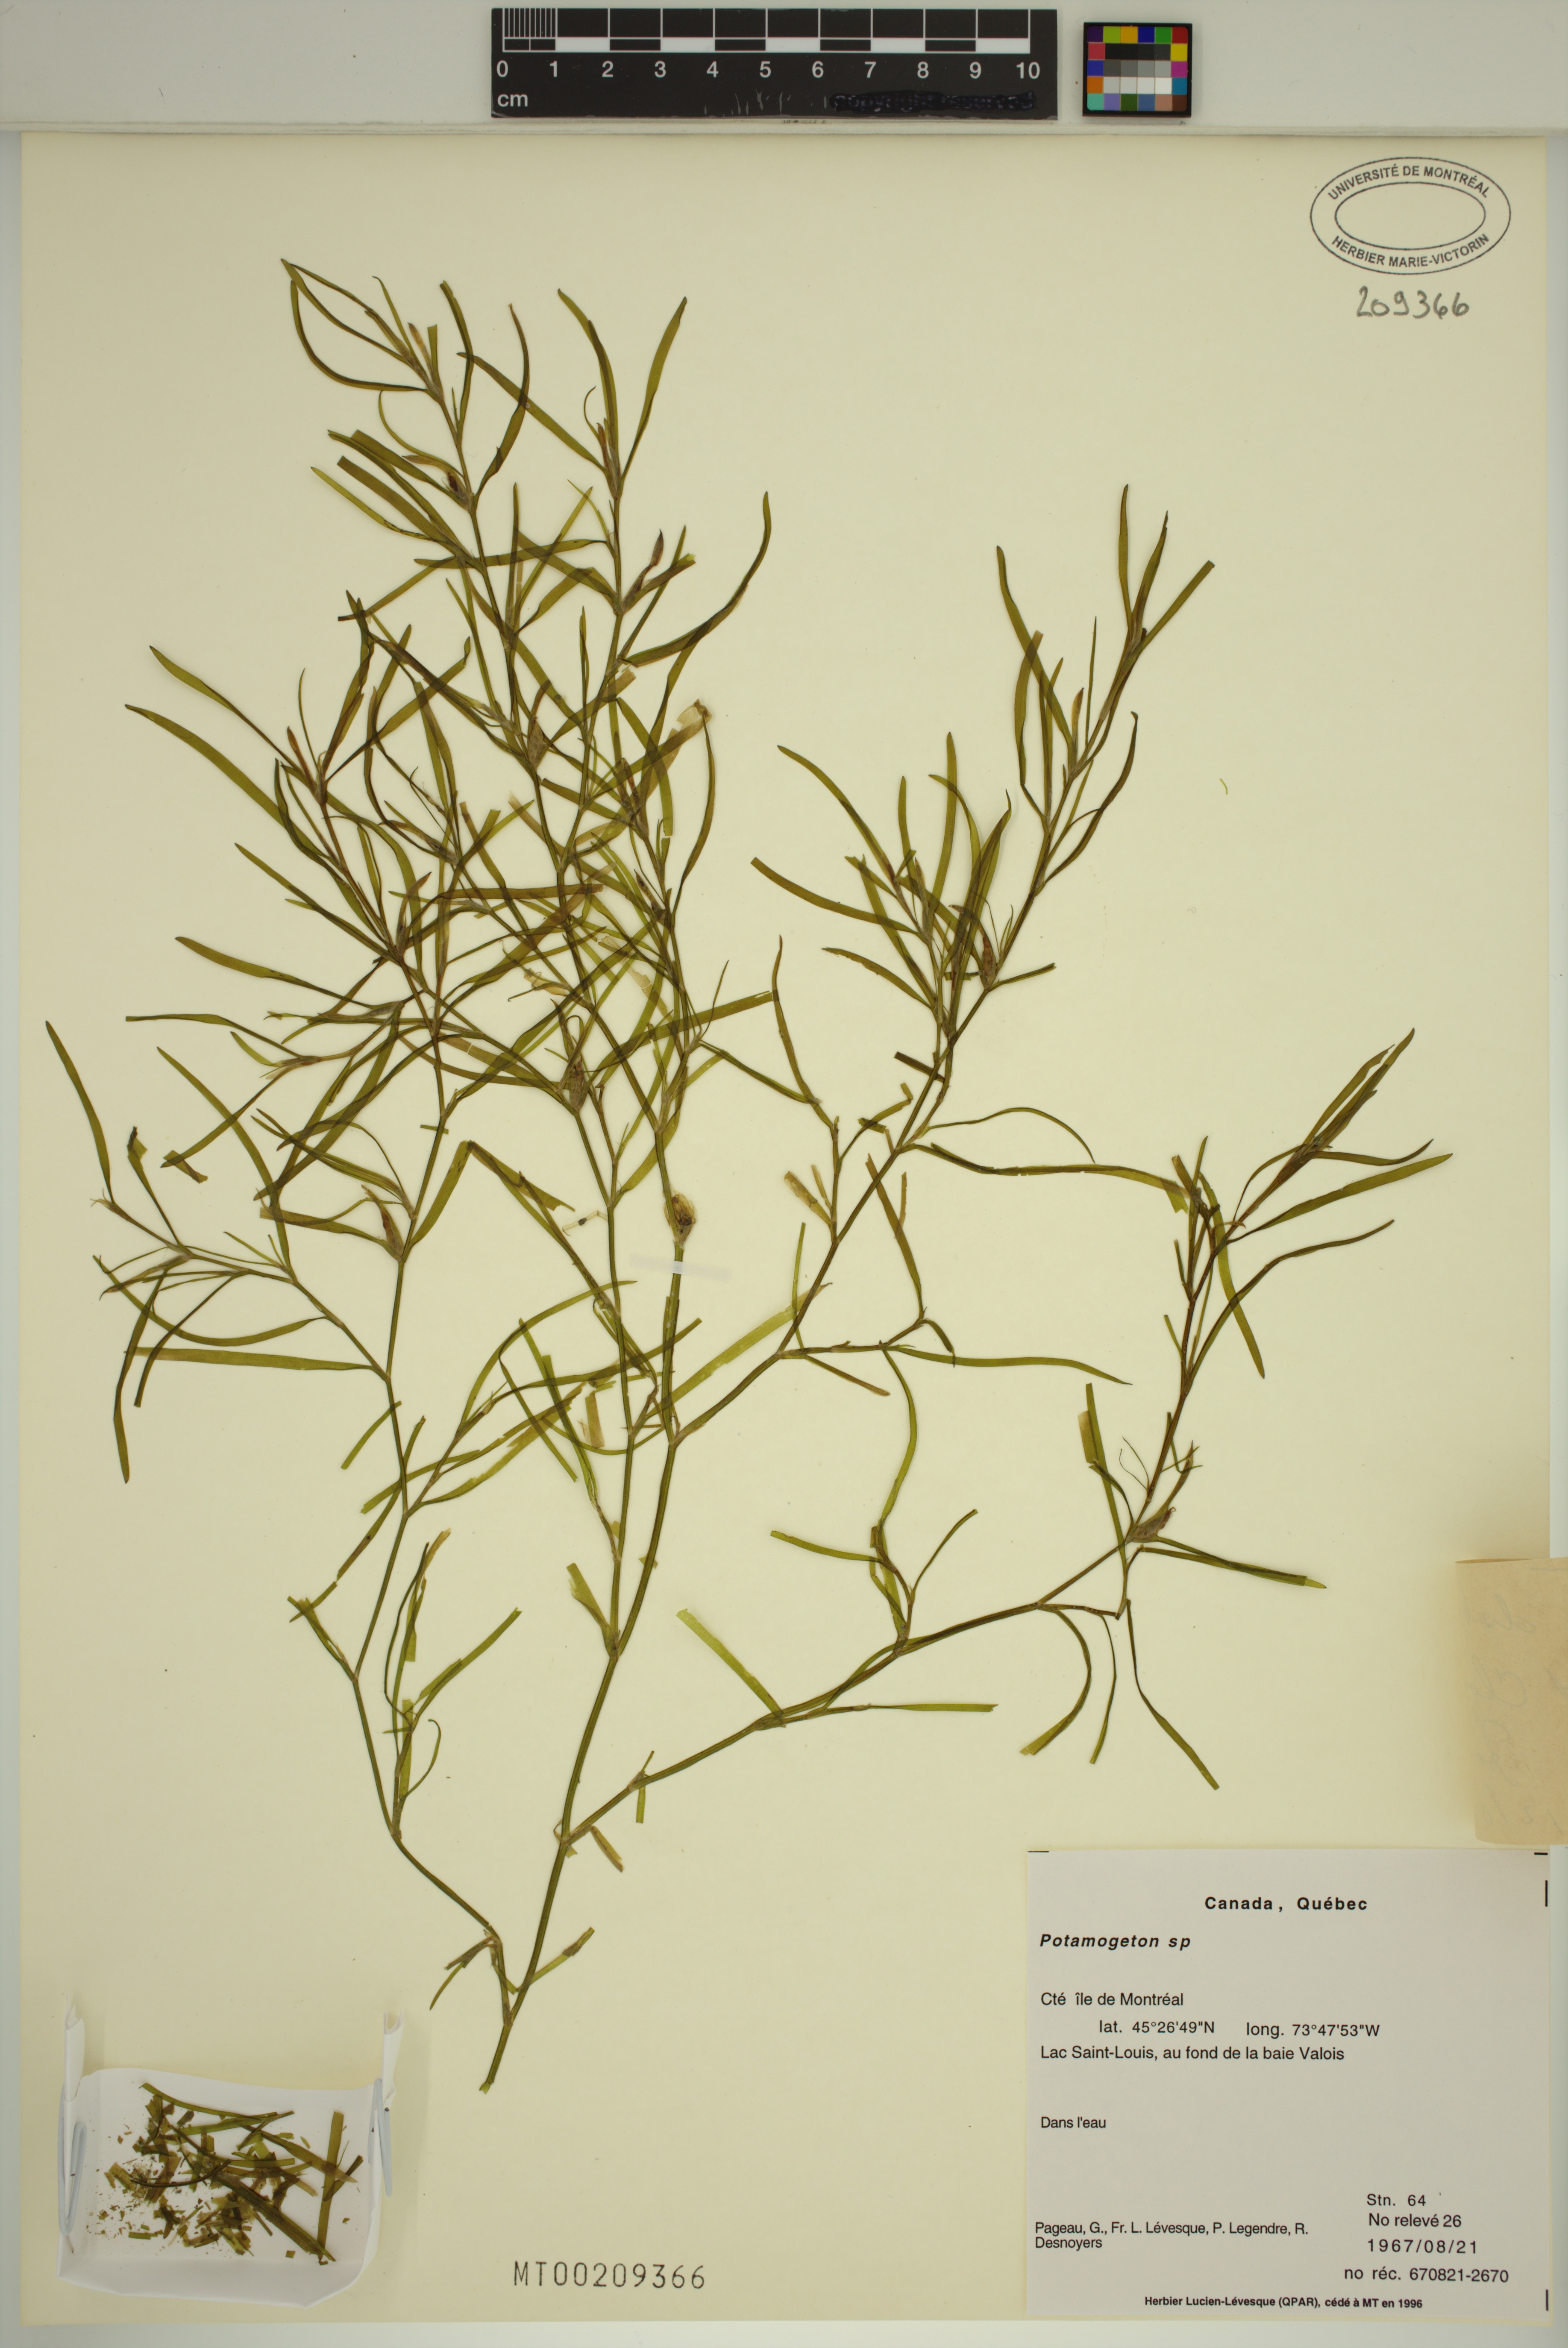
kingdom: Plantae
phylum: Tracheophyta
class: Liliopsida
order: Commelinales
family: Pontederiaceae
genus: Heteranthera
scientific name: Heteranthera dubia
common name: Grass-leaved mud plantain
